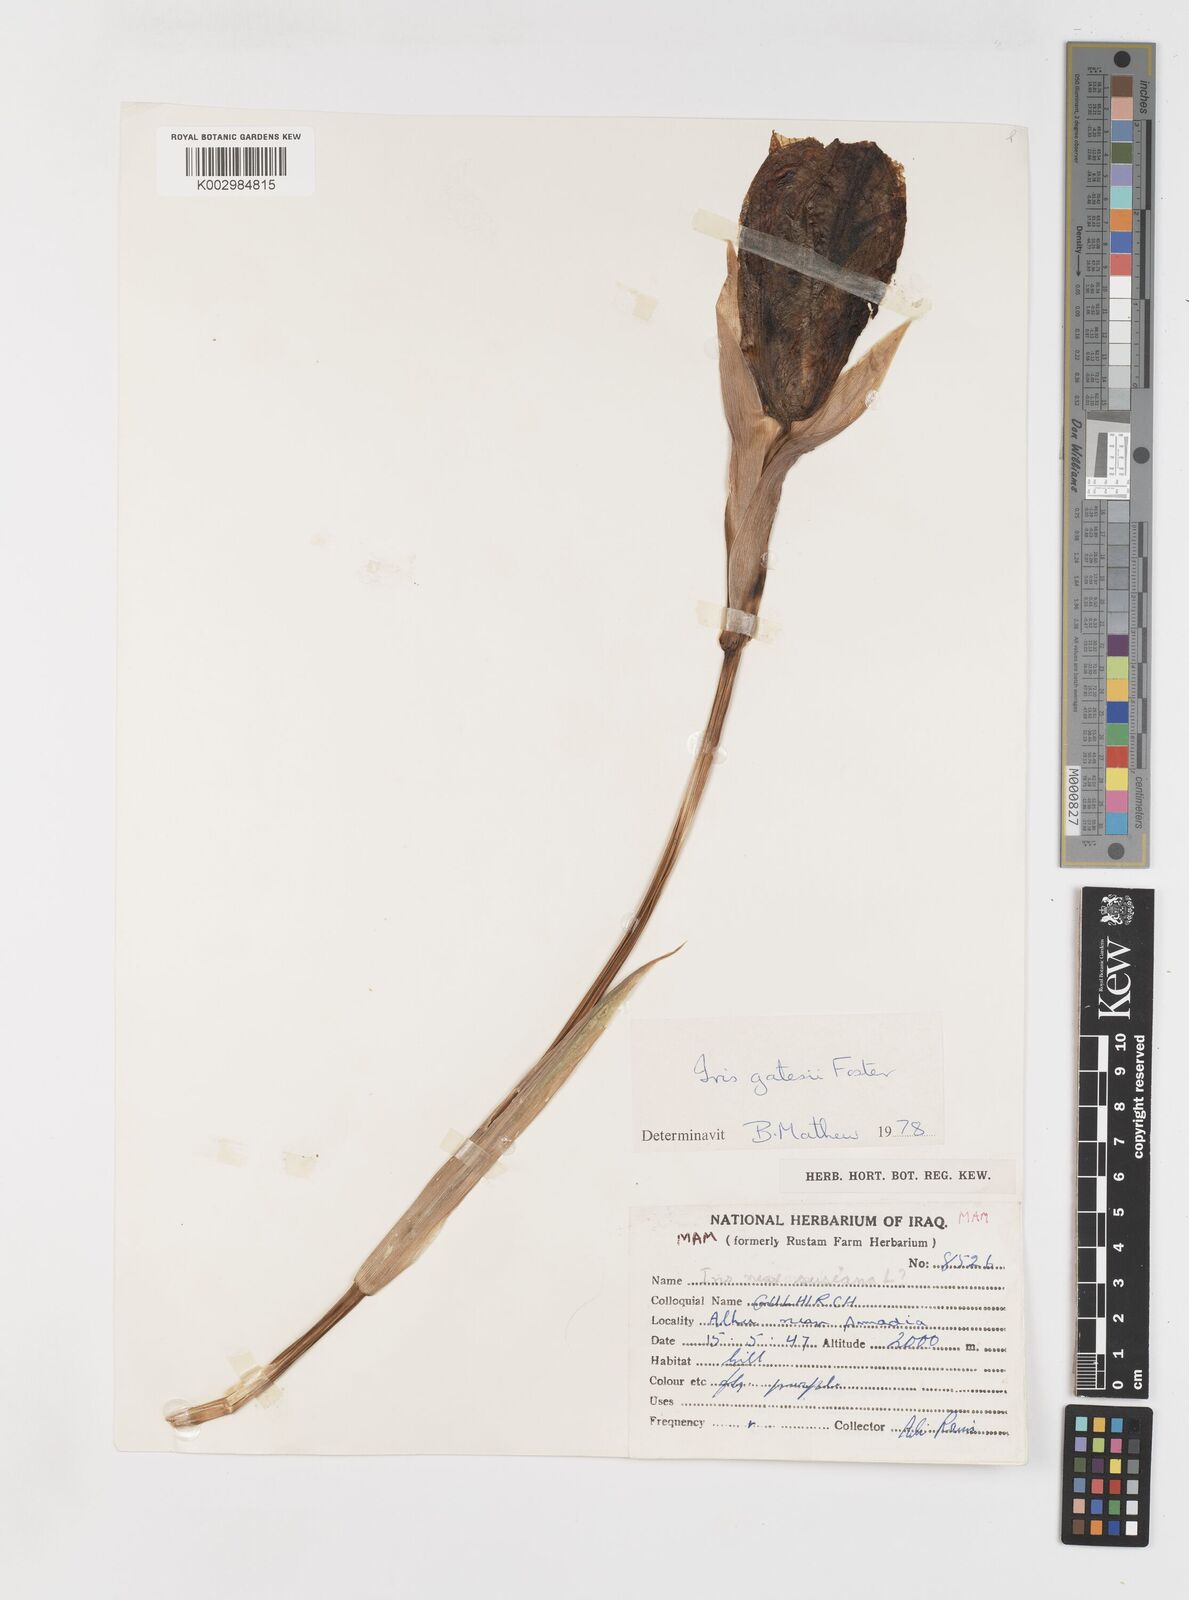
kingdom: Plantae
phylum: Tracheophyta
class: Liliopsida
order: Asparagales
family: Iridaceae
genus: Iris
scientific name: Iris gatesii
